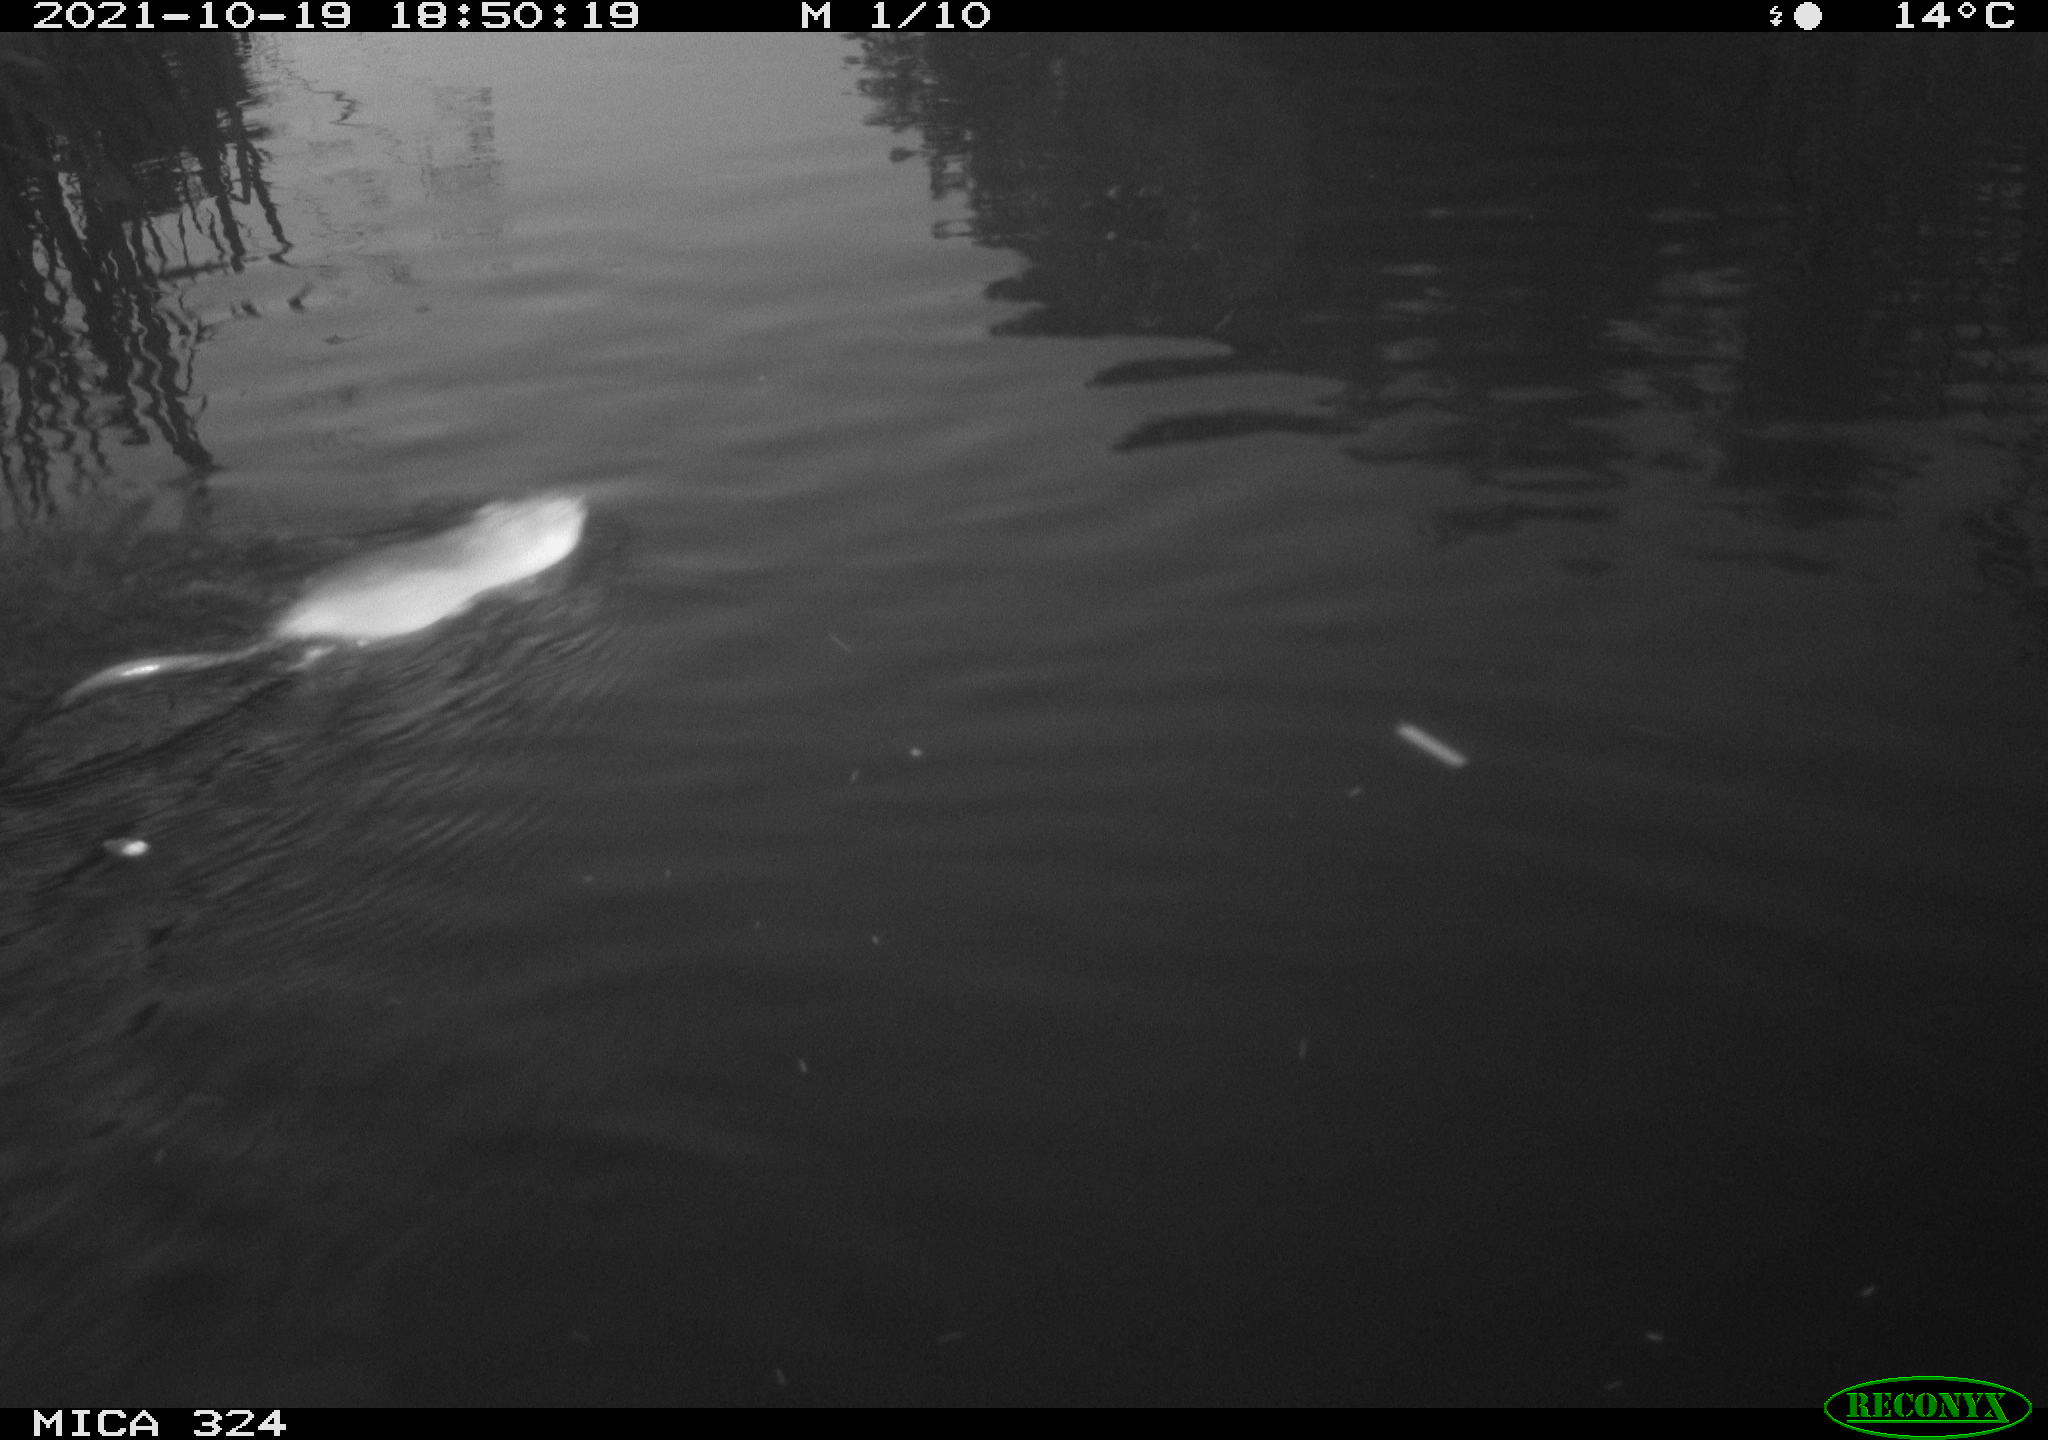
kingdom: Animalia
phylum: Chordata
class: Mammalia
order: Rodentia
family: Cricetidae
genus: Ondatra
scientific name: Ondatra zibethicus
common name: Muskrat
